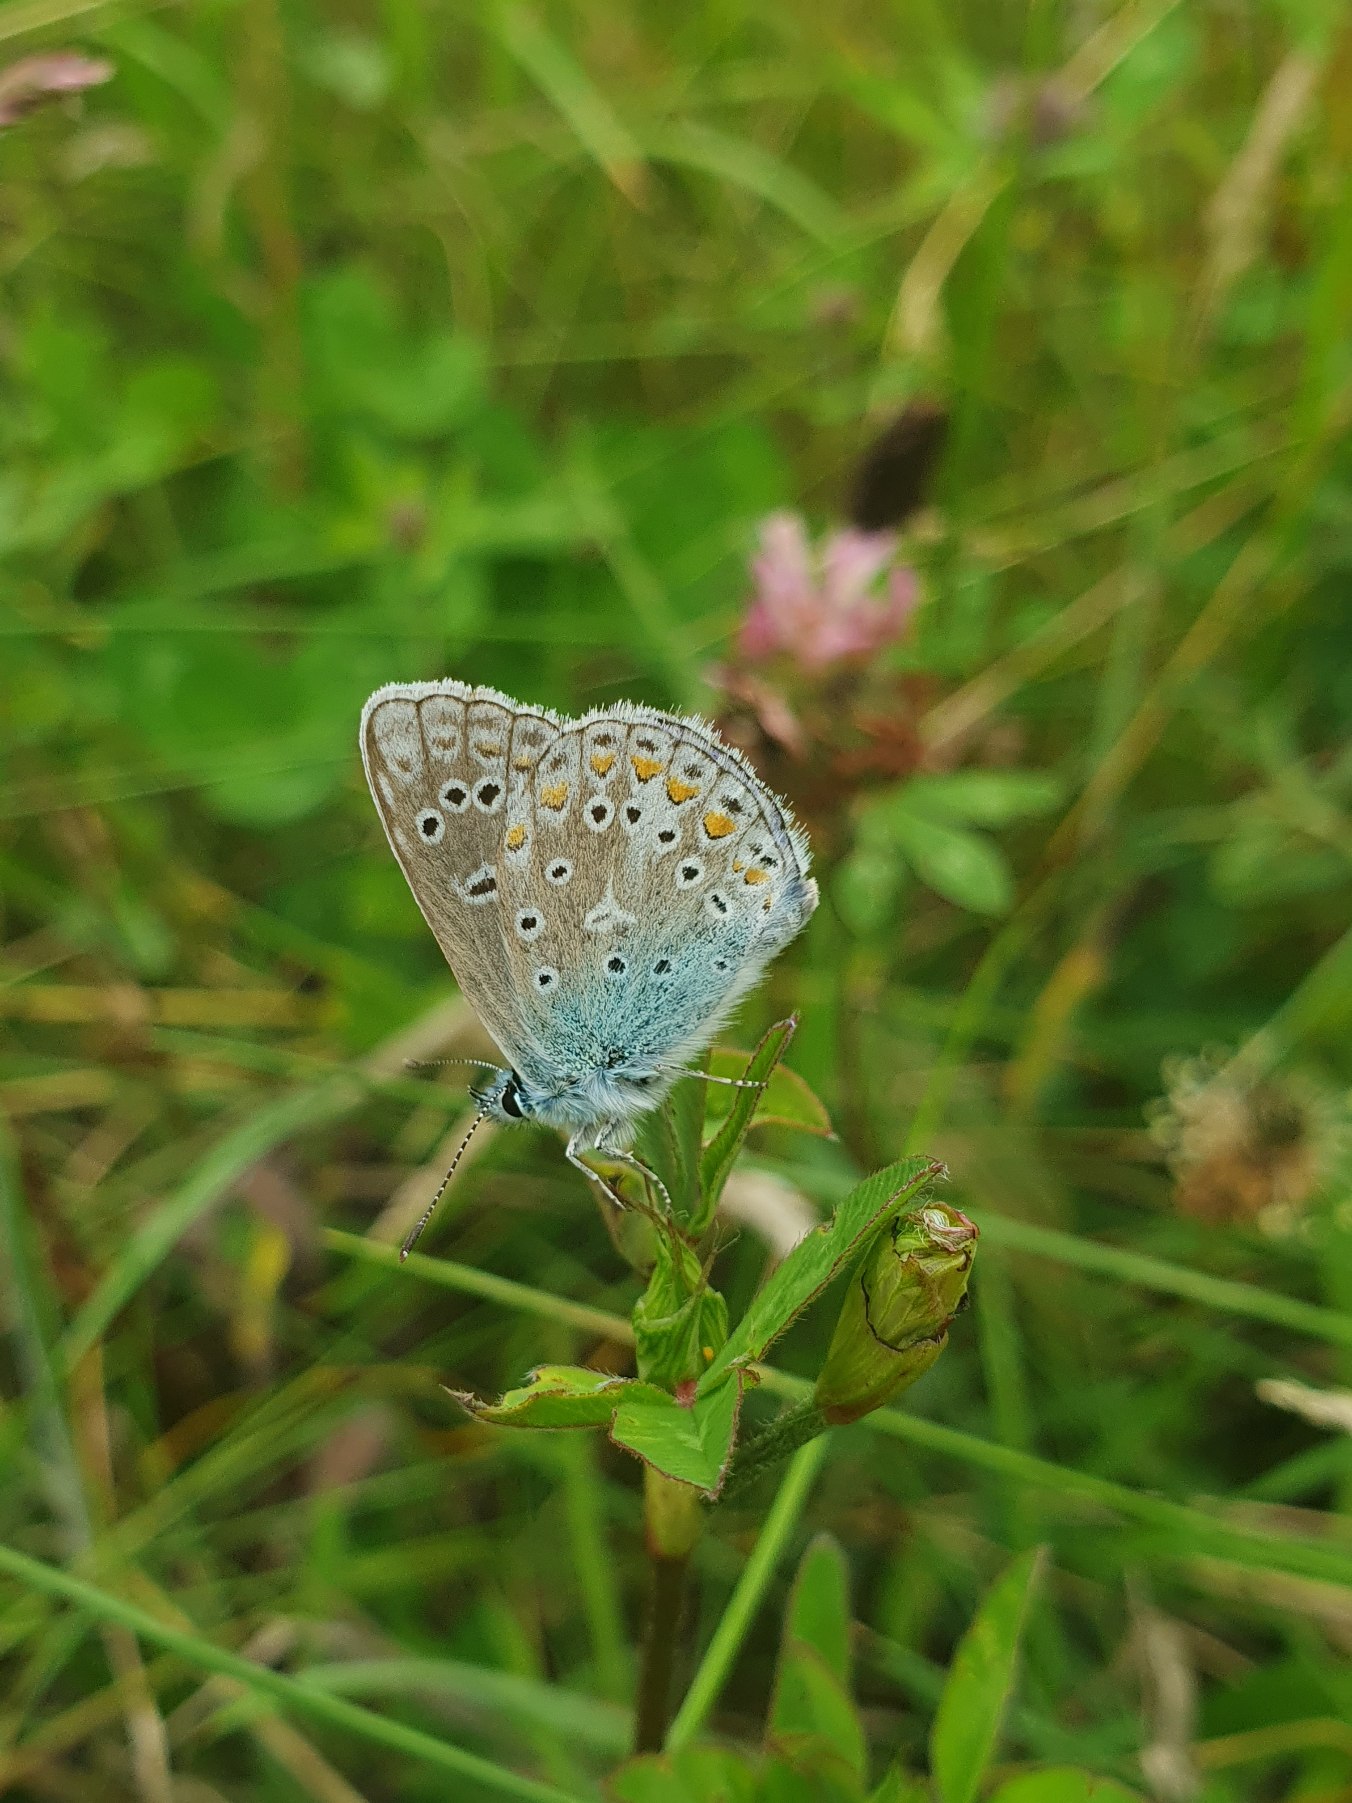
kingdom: Animalia
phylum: Arthropoda
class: Insecta
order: Lepidoptera
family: Lycaenidae
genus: Polyommatus
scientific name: Polyommatus icarus
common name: Almindelig blåfugl
